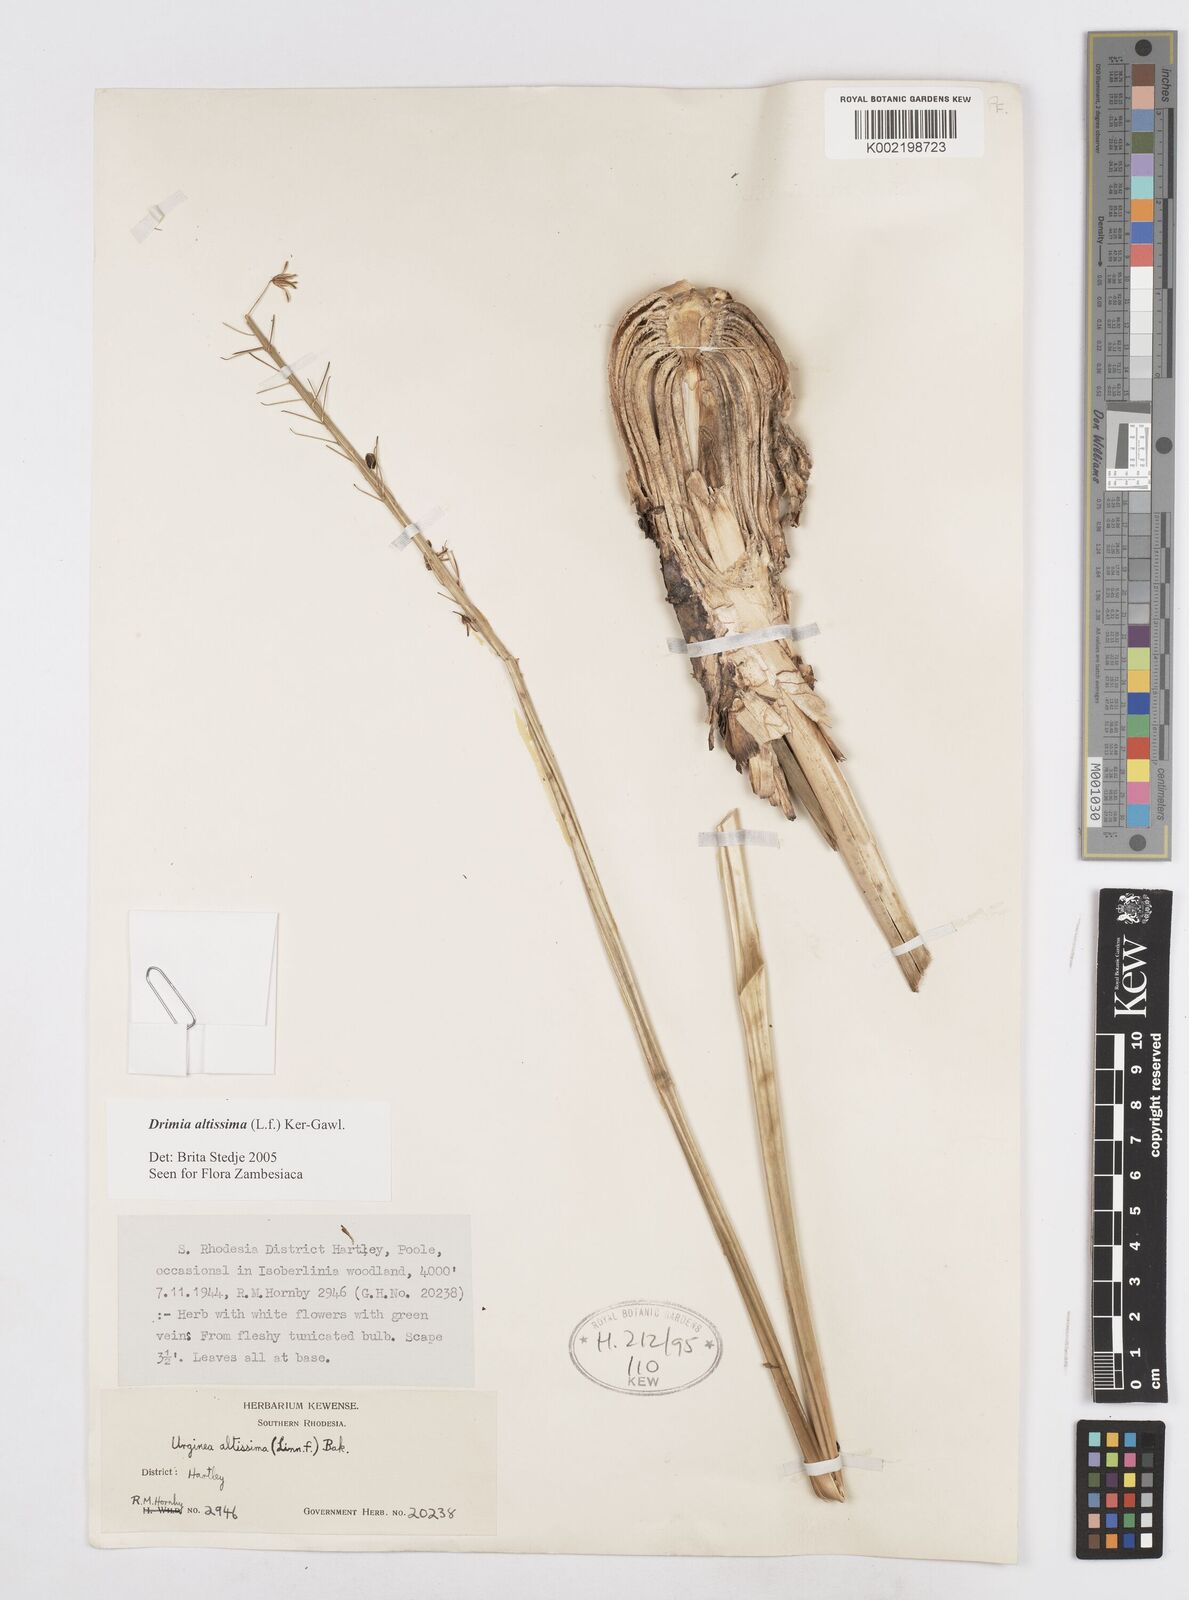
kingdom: Plantae
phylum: Tracheophyta
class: Liliopsida
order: Asparagales
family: Asparagaceae
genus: Drimia
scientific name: Drimia
